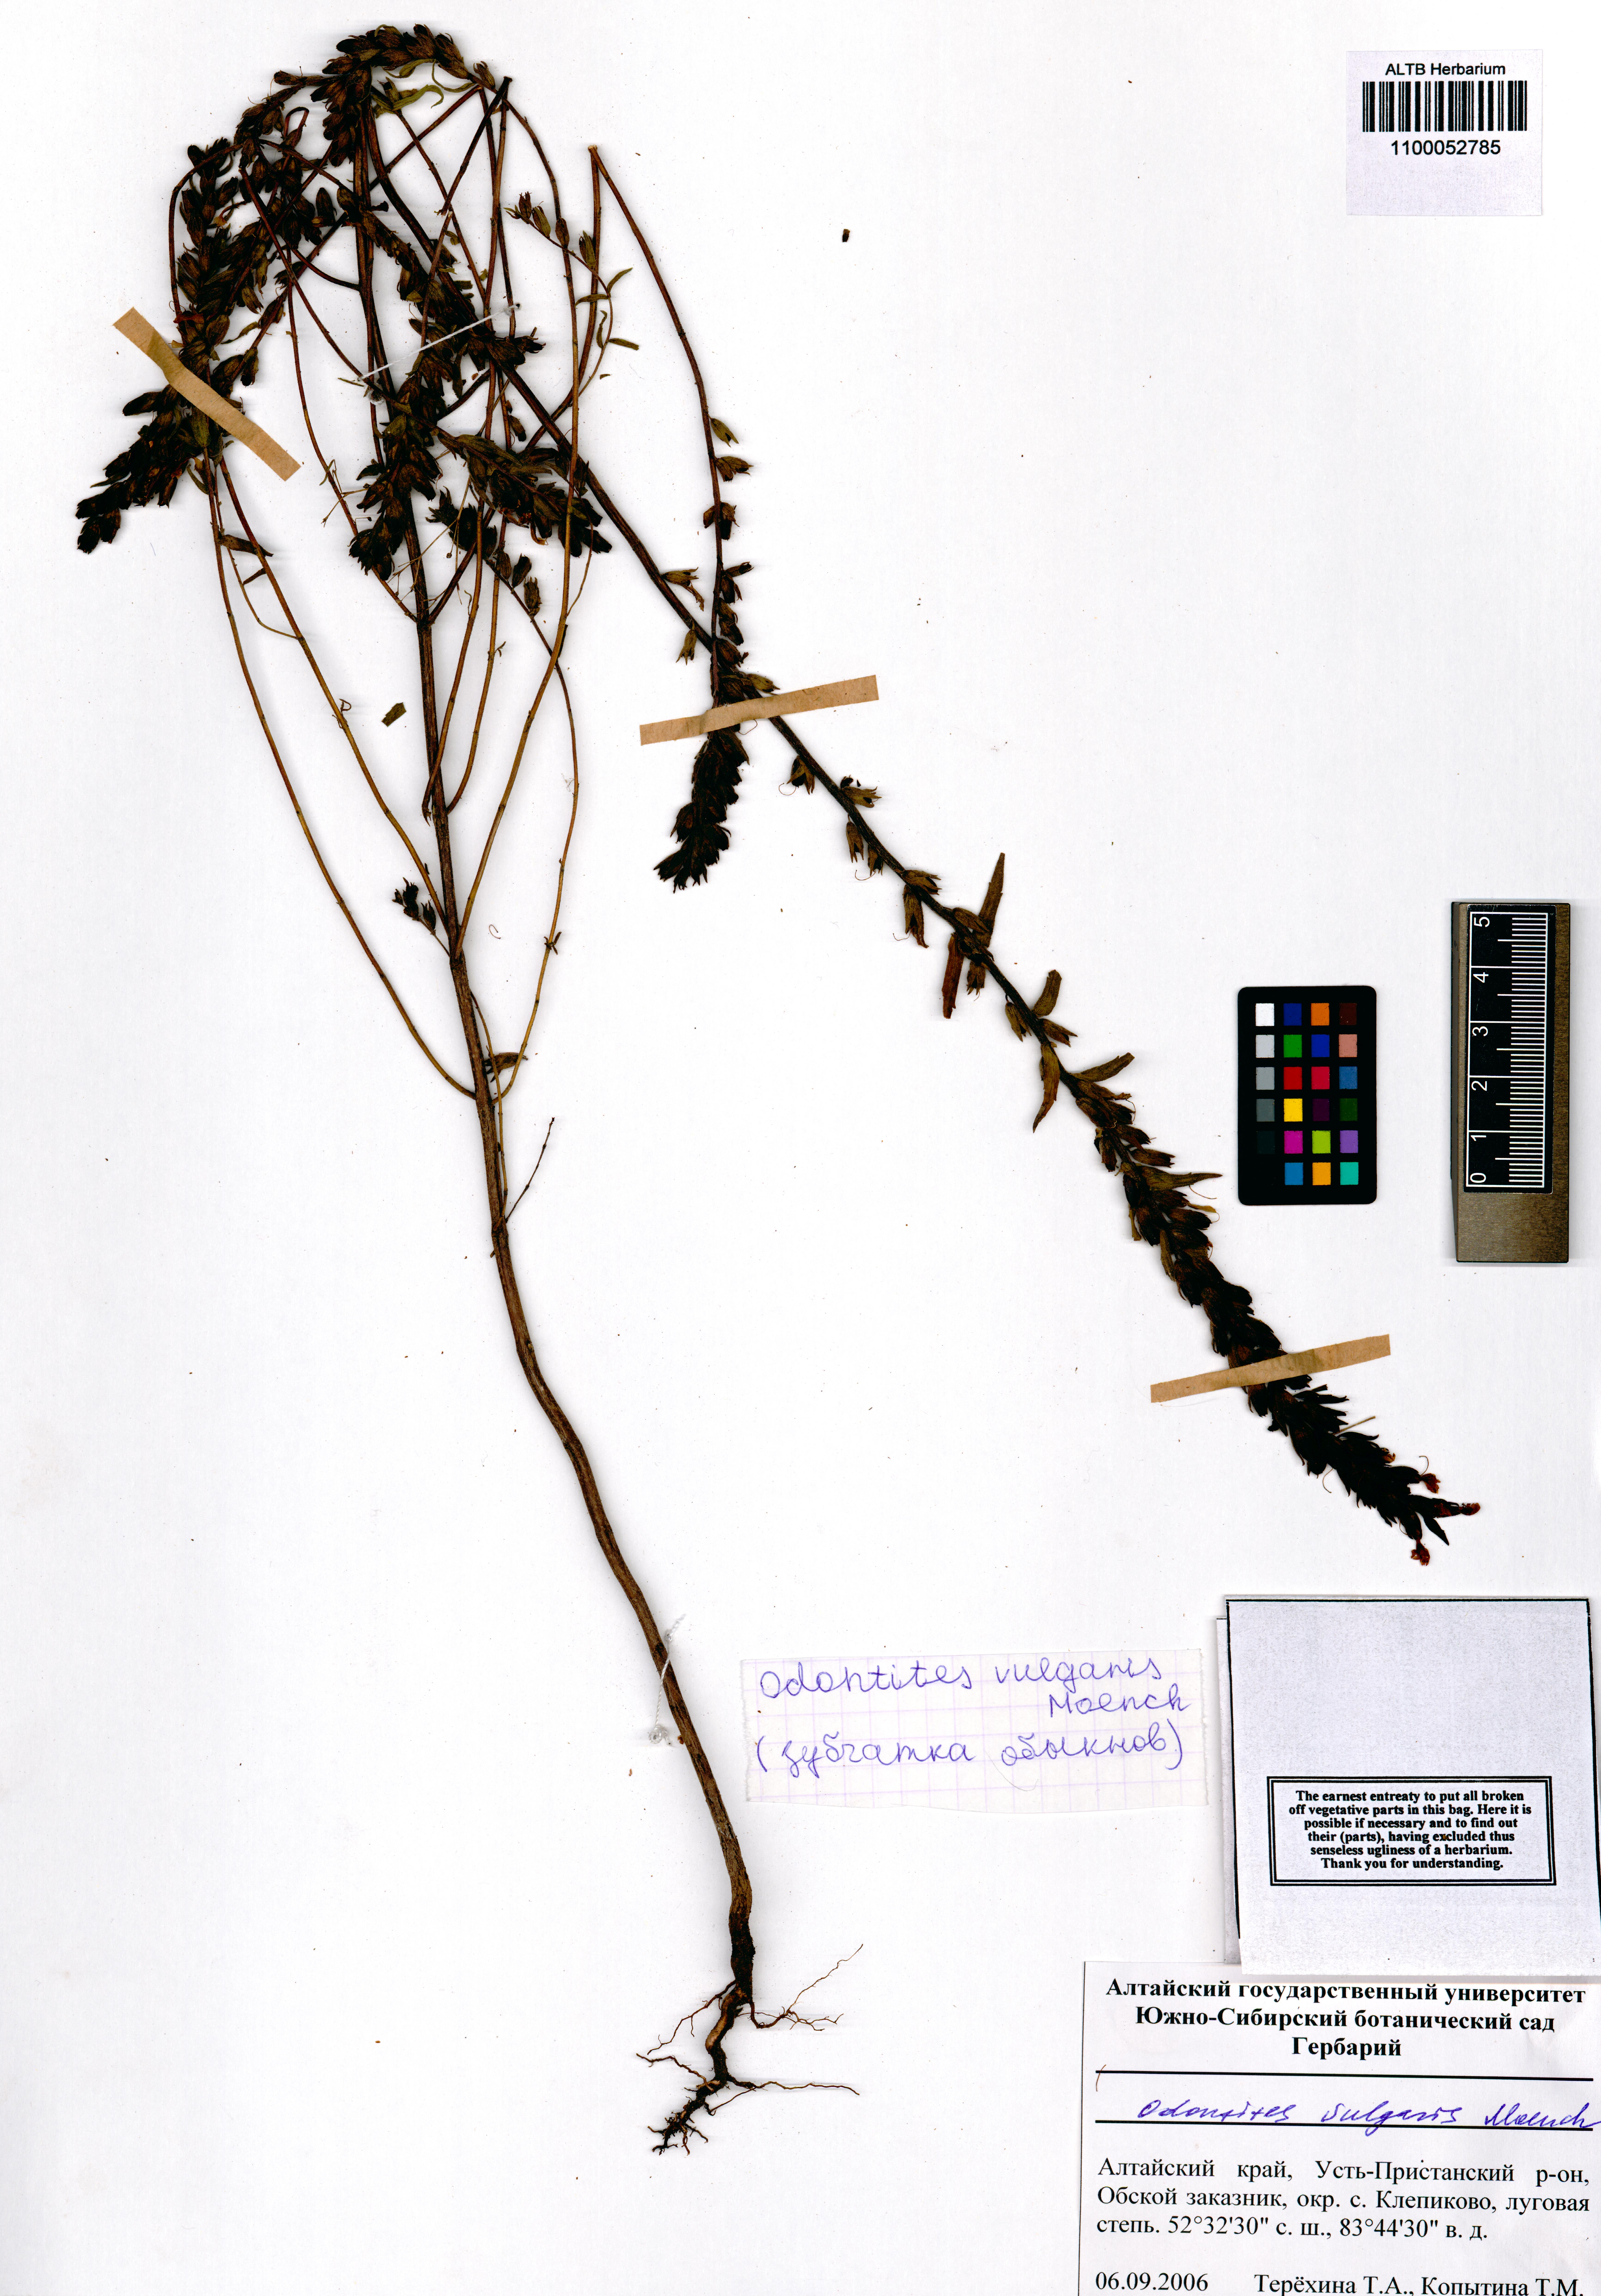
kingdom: Plantae
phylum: Tracheophyta
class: Magnoliopsida
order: Lamiales
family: Orobanchaceae
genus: Odontites
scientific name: Odontites vulgaris
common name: Broomrape
